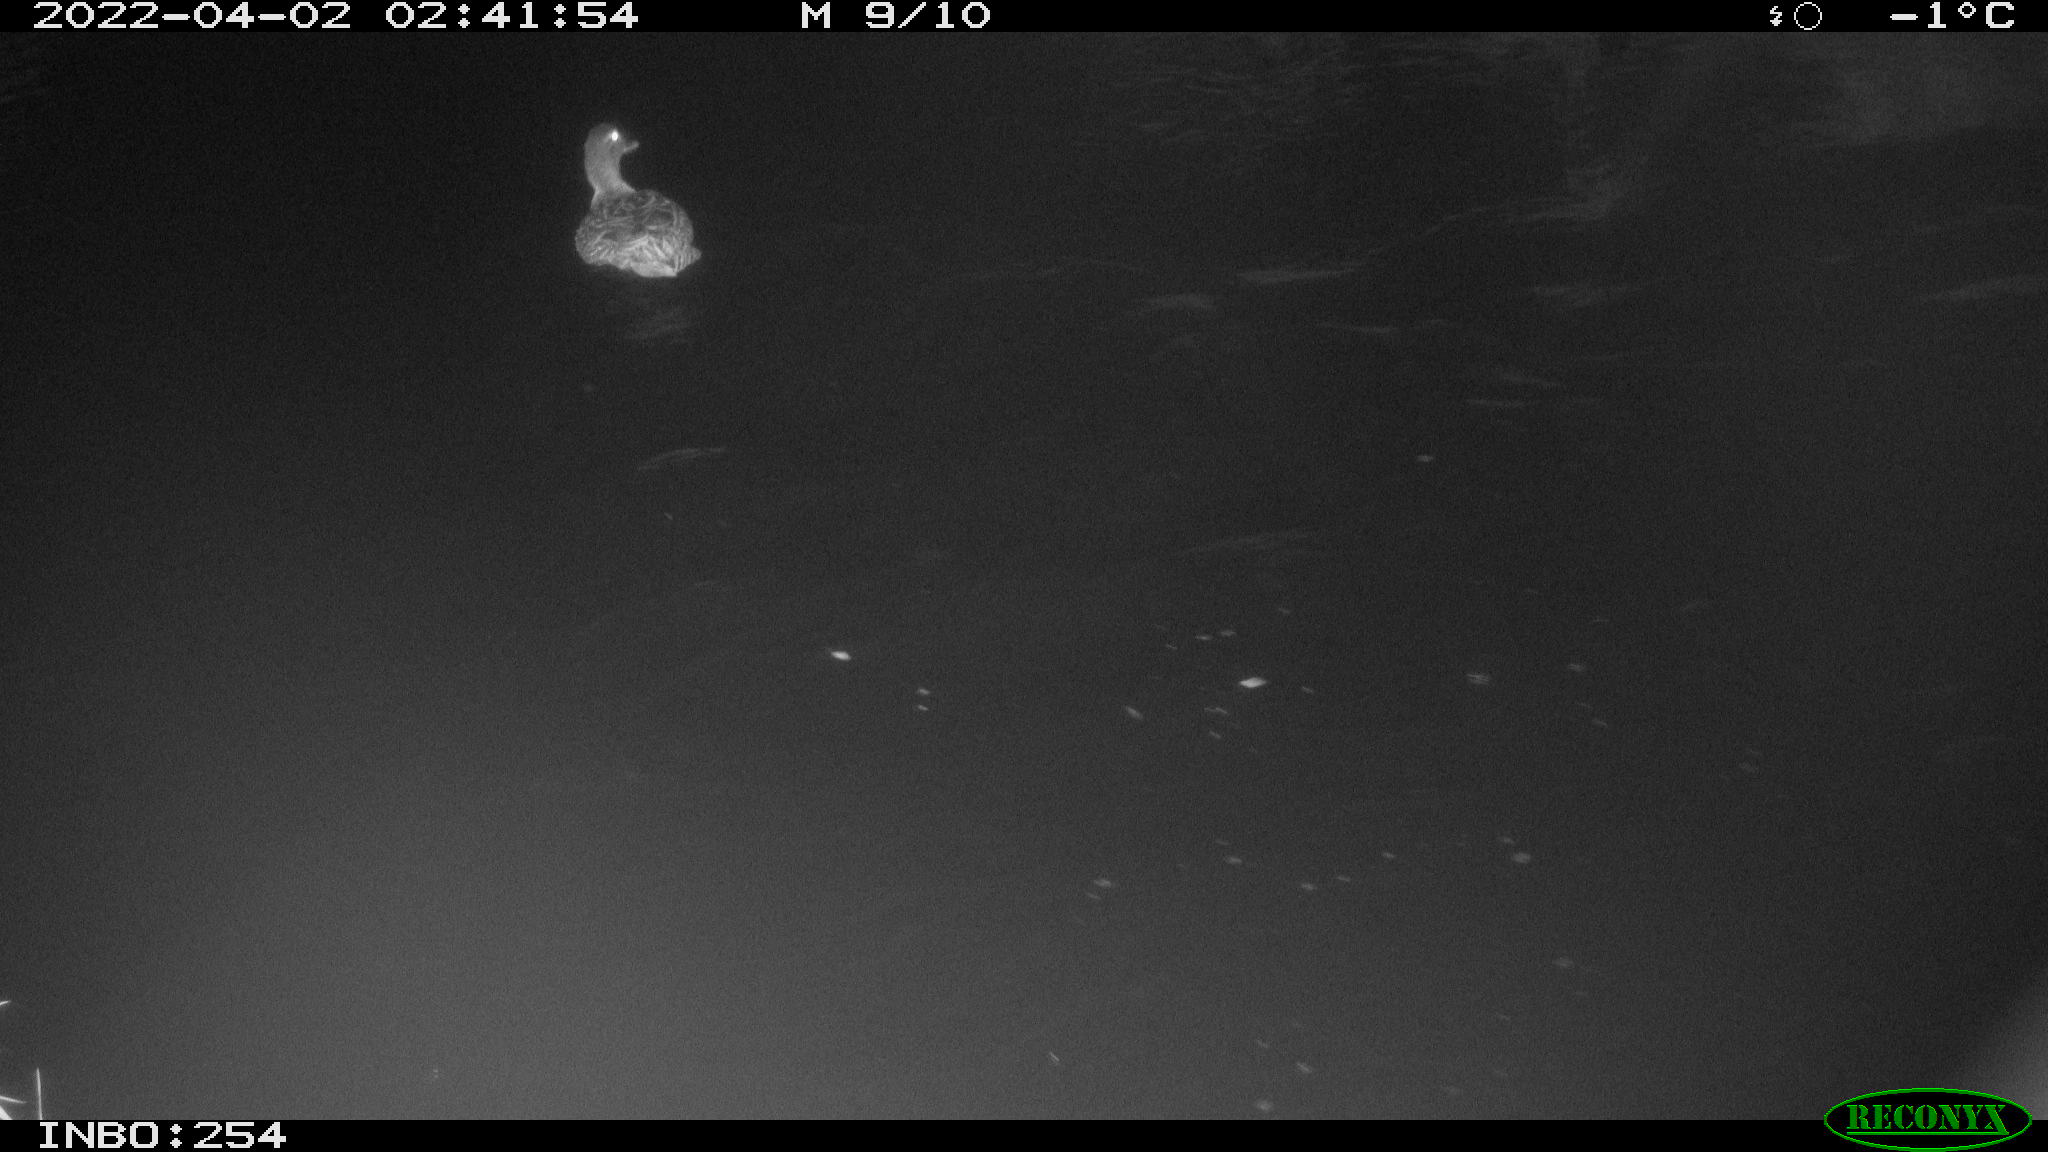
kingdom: Animalia
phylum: Chordata
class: Aves
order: Anseriformes
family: Anatidae
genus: Anas
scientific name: Anas platyrhynchos
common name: Mallard
